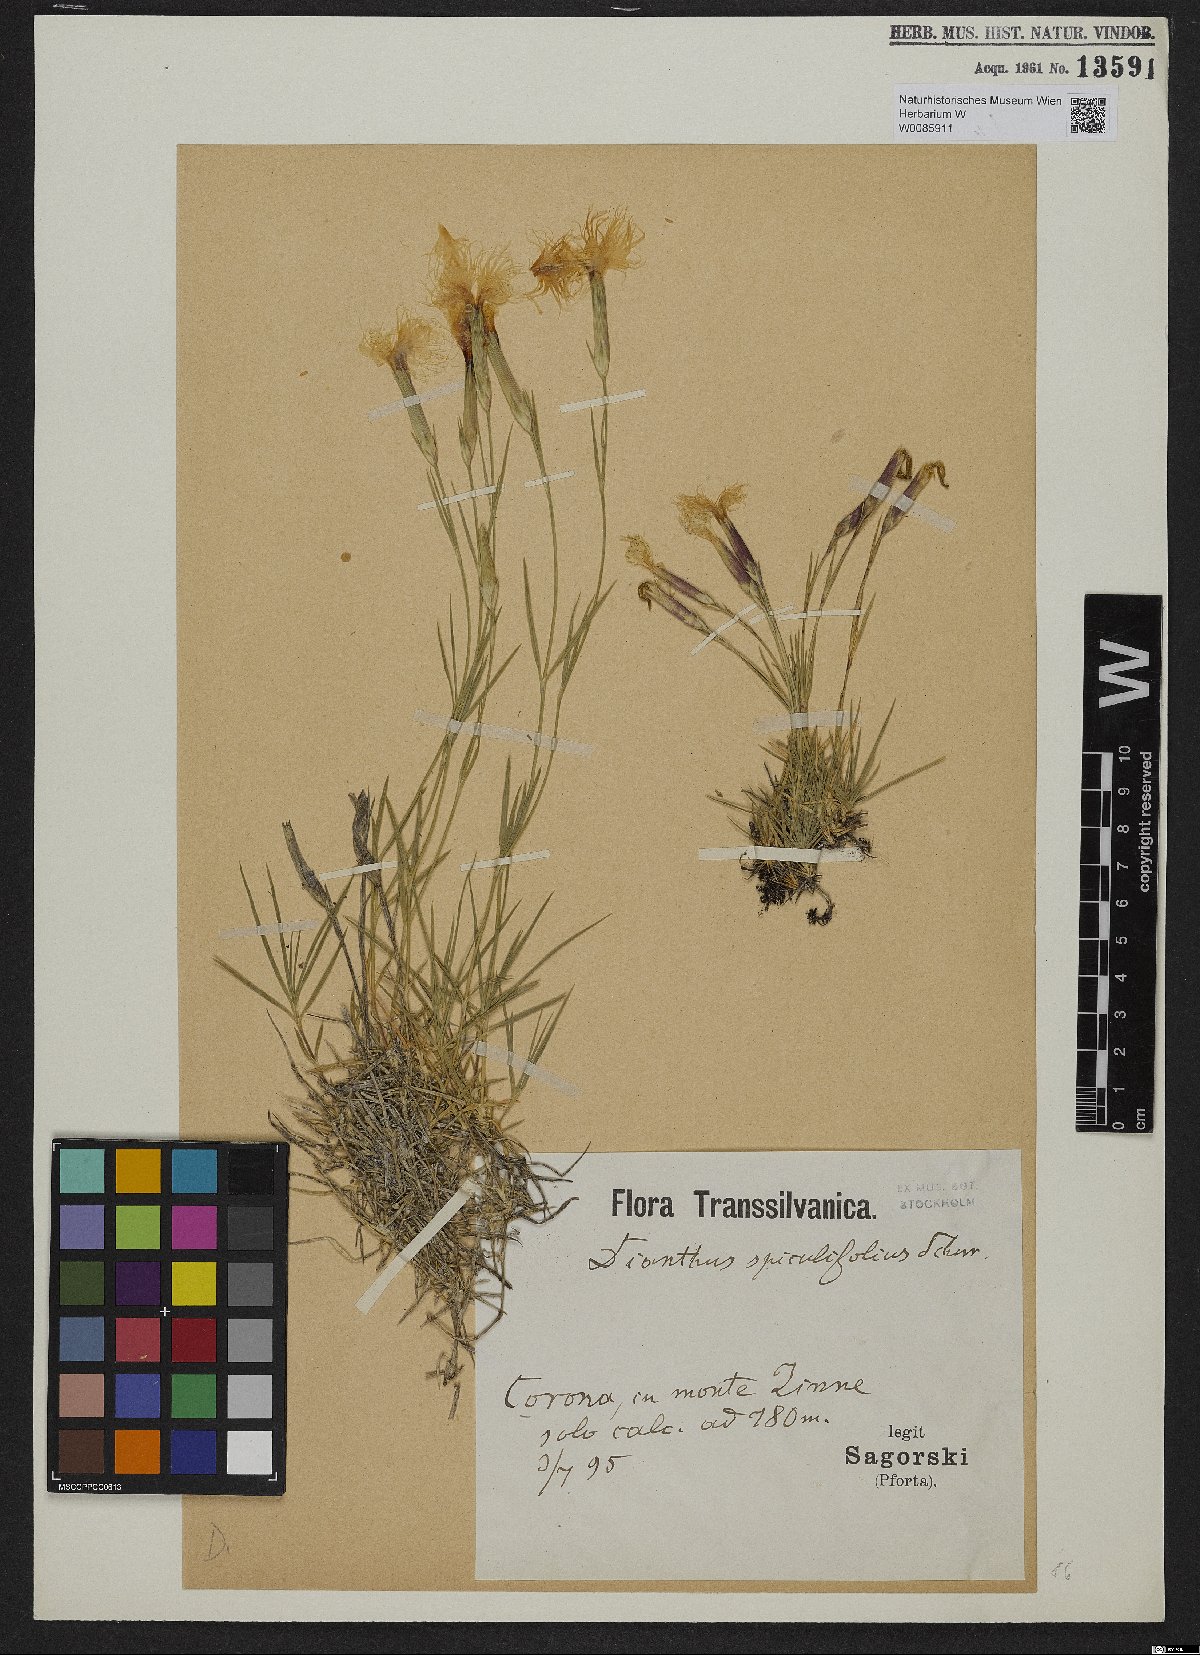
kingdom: Plantae
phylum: Tracheophyta
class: Magnoliopsida
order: Caryophyllales
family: Caryophyllaceae
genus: Dianthus
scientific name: Dianthus spiculifolius
